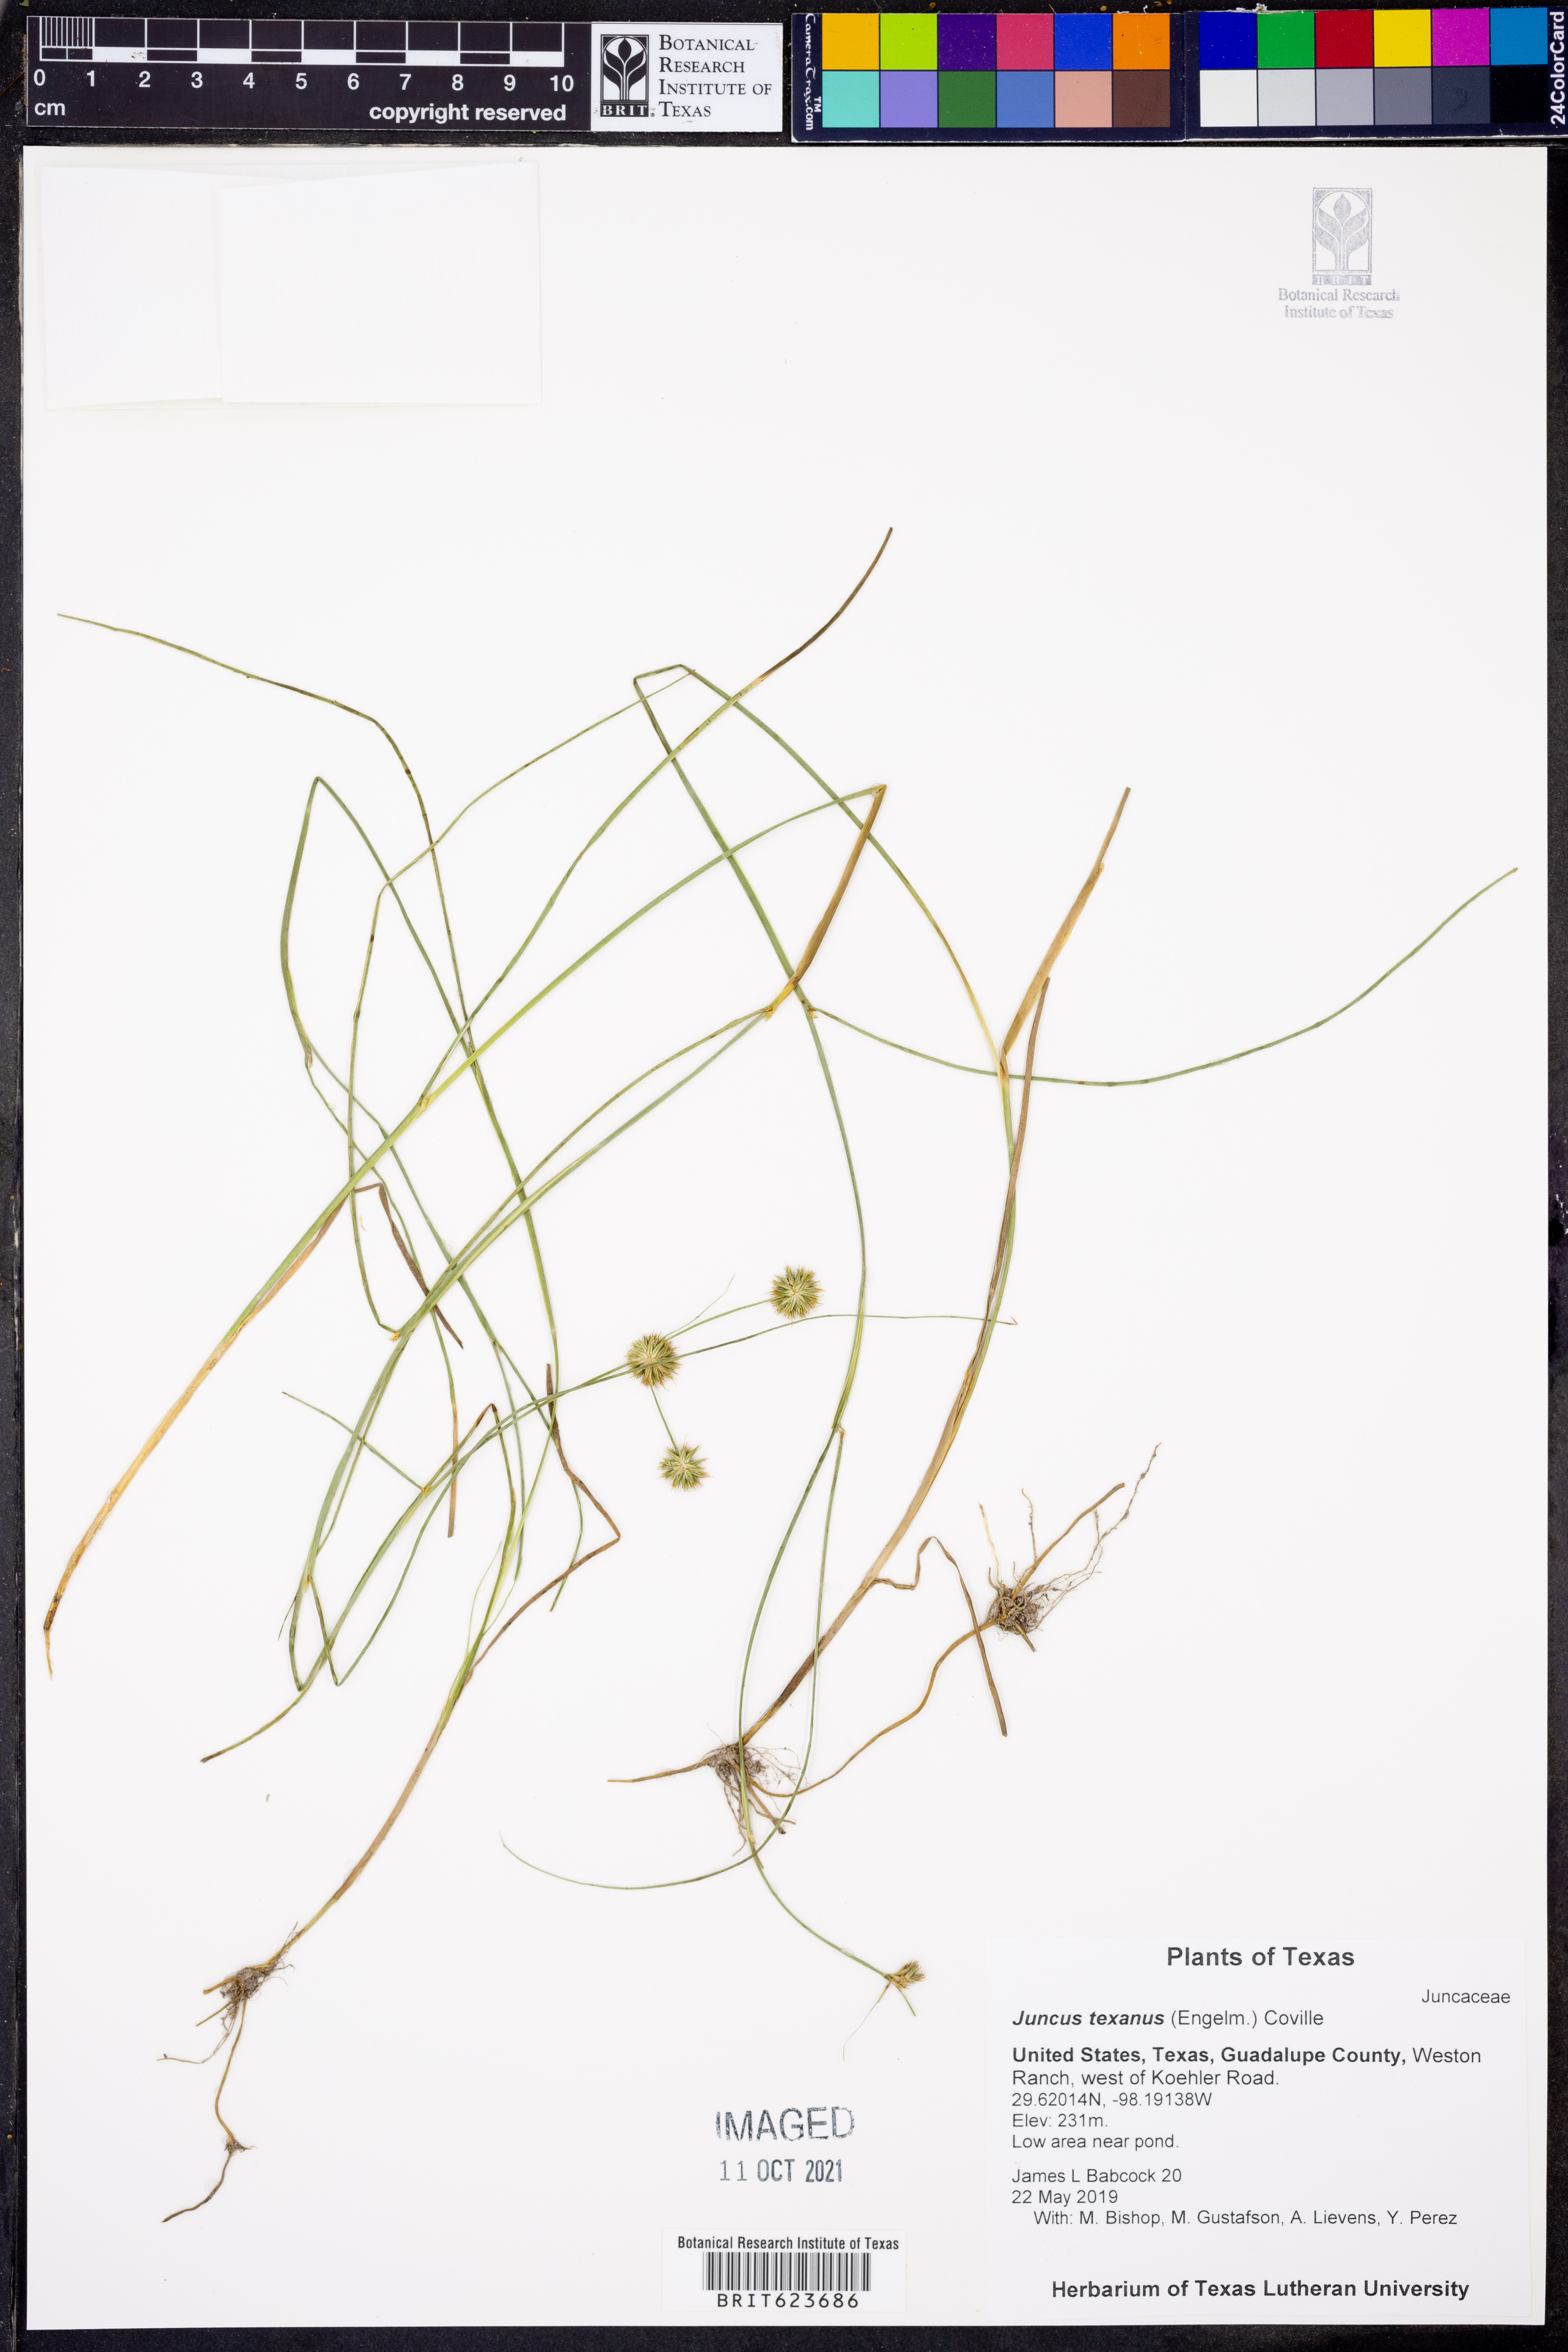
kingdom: Plantae
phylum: Tracheophyta
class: Liliopsida
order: Poales
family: Juncaceae
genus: Juncus
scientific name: Juncus texanus
